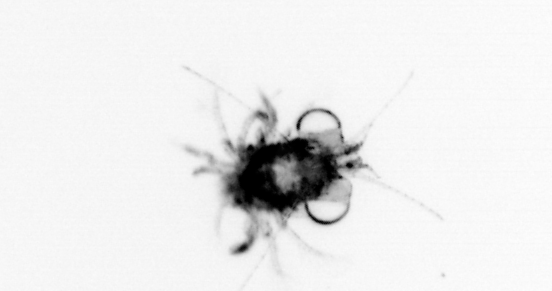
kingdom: Animalia
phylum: Arthropoda
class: Malacostraca
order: Decapoda
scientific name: Decapoda
